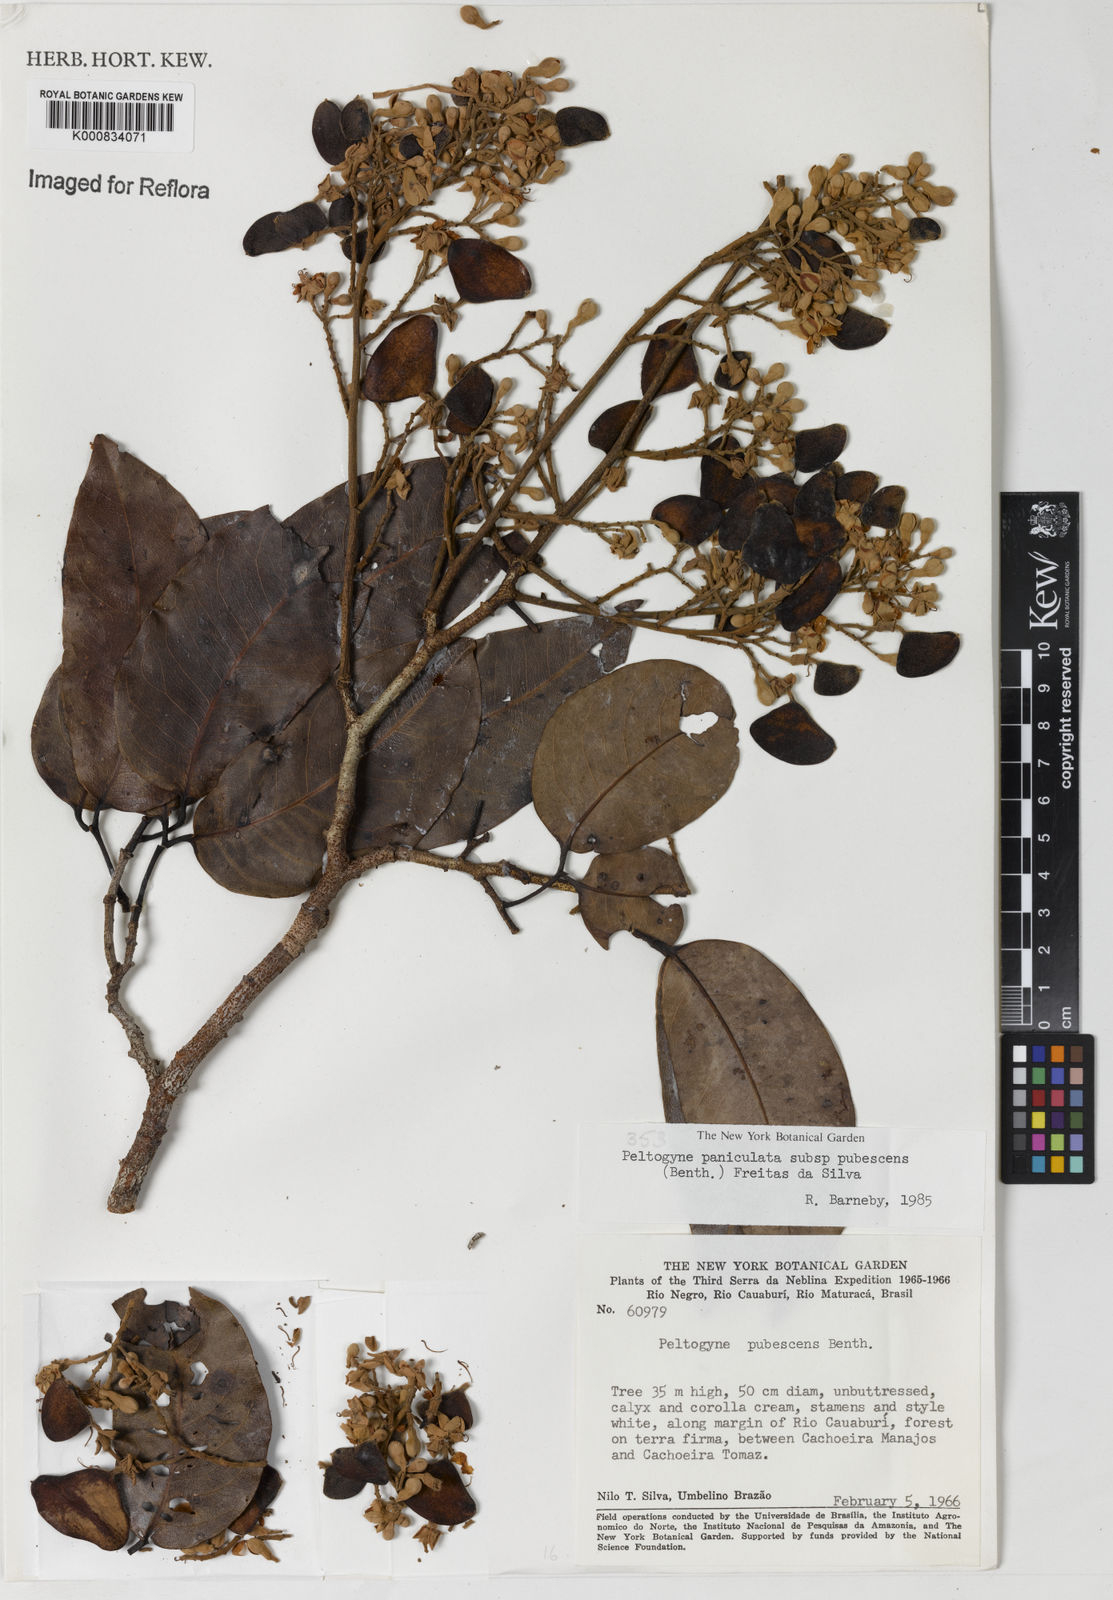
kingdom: Plantae
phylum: Tracheophyta
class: Magnoliopsida
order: Fabales
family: Fabaceae
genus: Peltogyne
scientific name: Peltogyne paniculata
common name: Purpleheart
